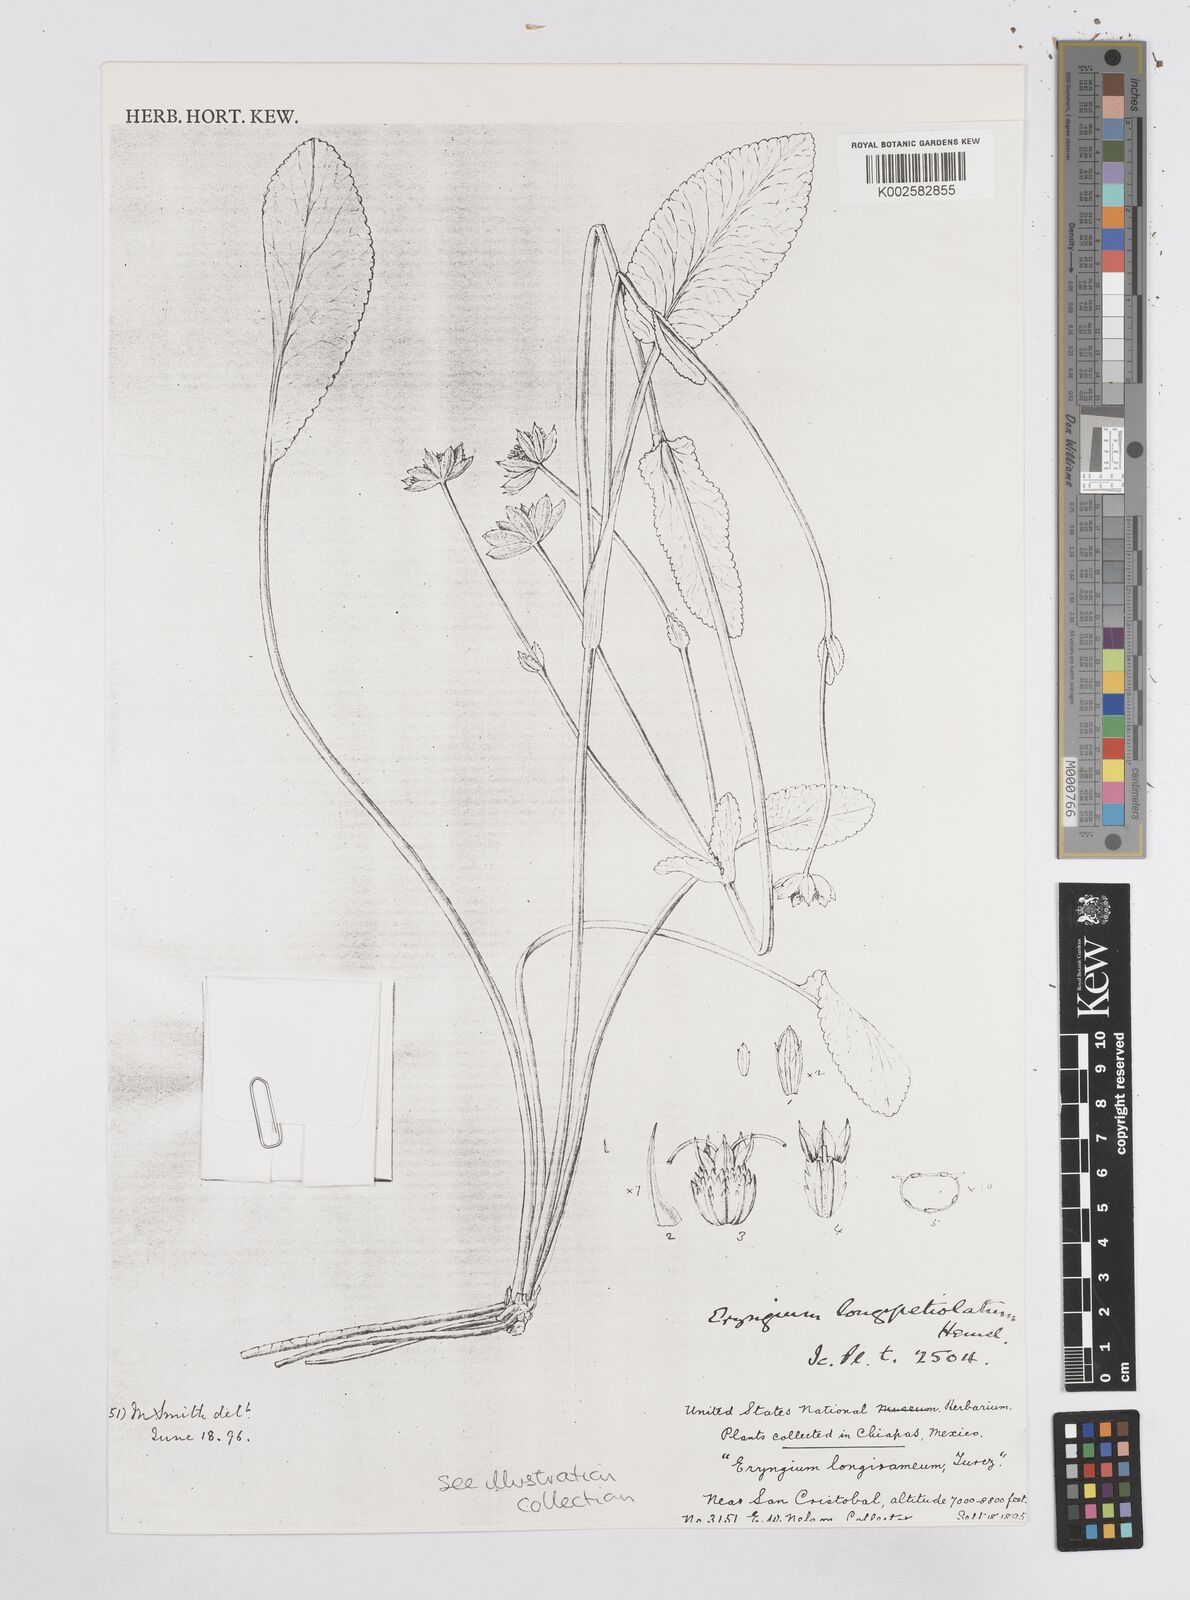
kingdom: Plantae
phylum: Tracheophyta
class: Magnoliopsida
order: Apiales
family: Apiaceae
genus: Eryngium
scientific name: Eryngium gracile
